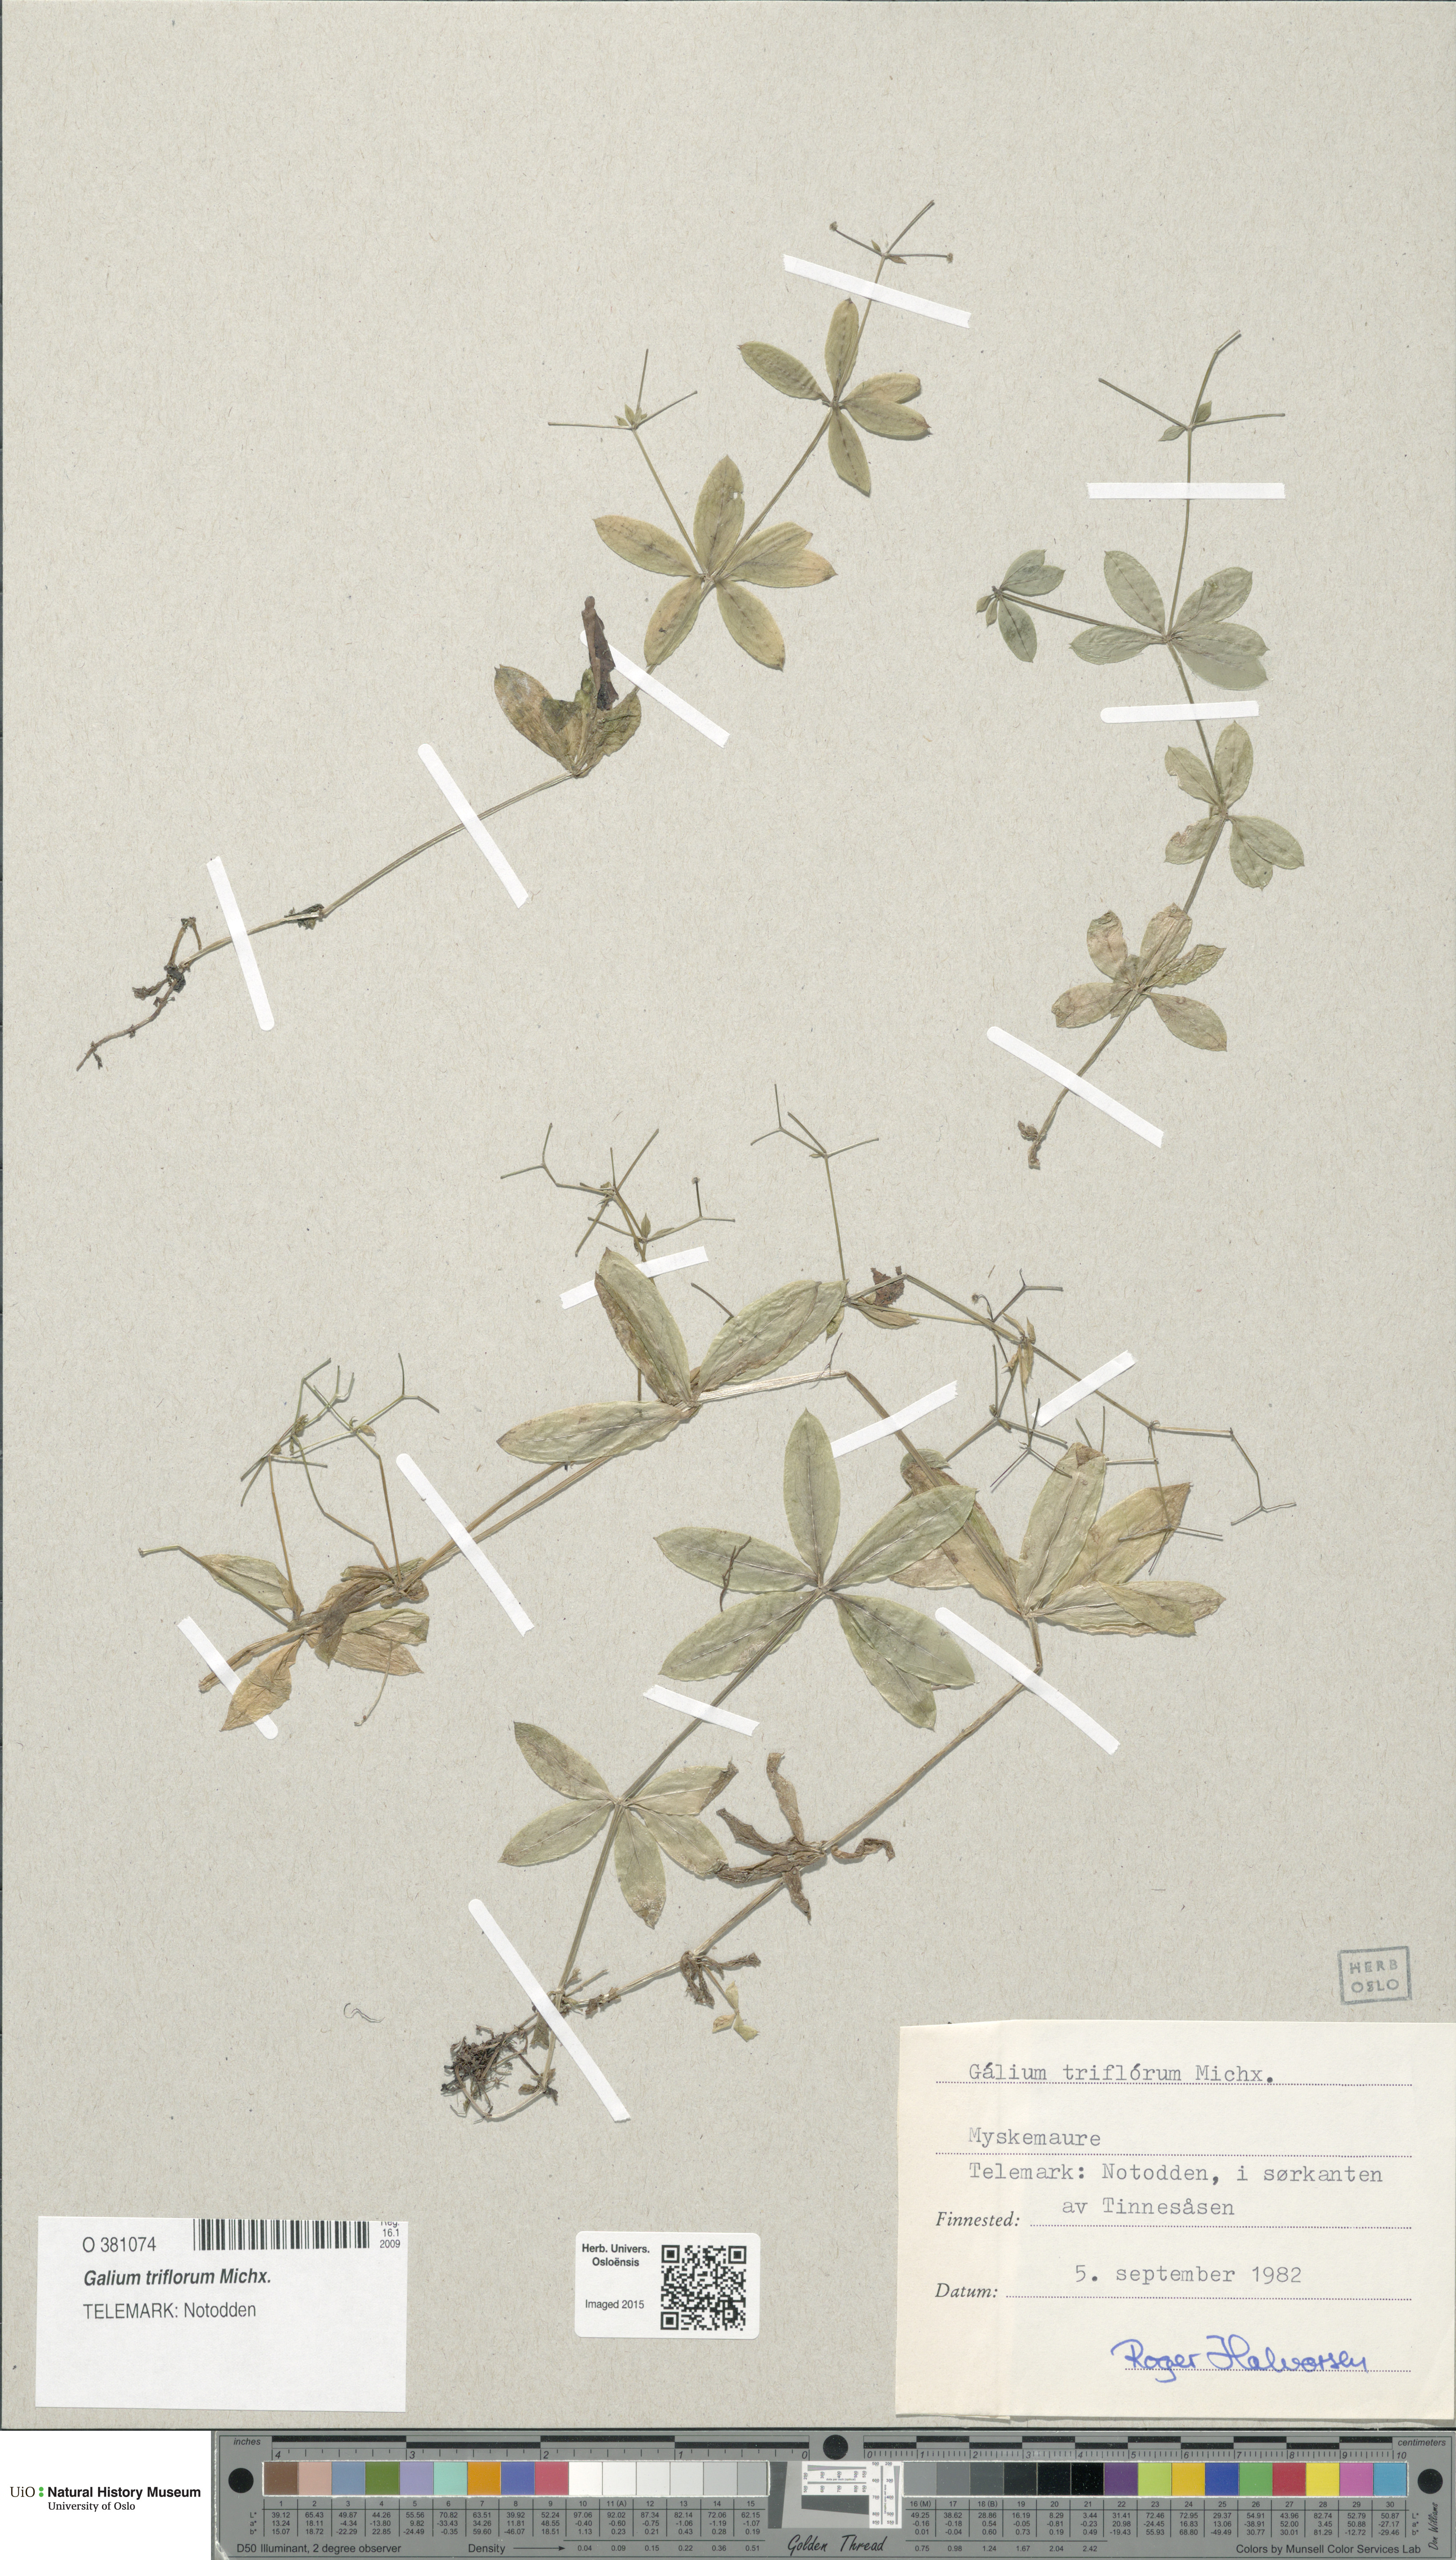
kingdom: Plantae
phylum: Tracheophyta
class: Magnoliopsida
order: Gentianales
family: Rubiaceae
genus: Galium
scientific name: Galium triflorum
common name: Fragrant bedstraw
